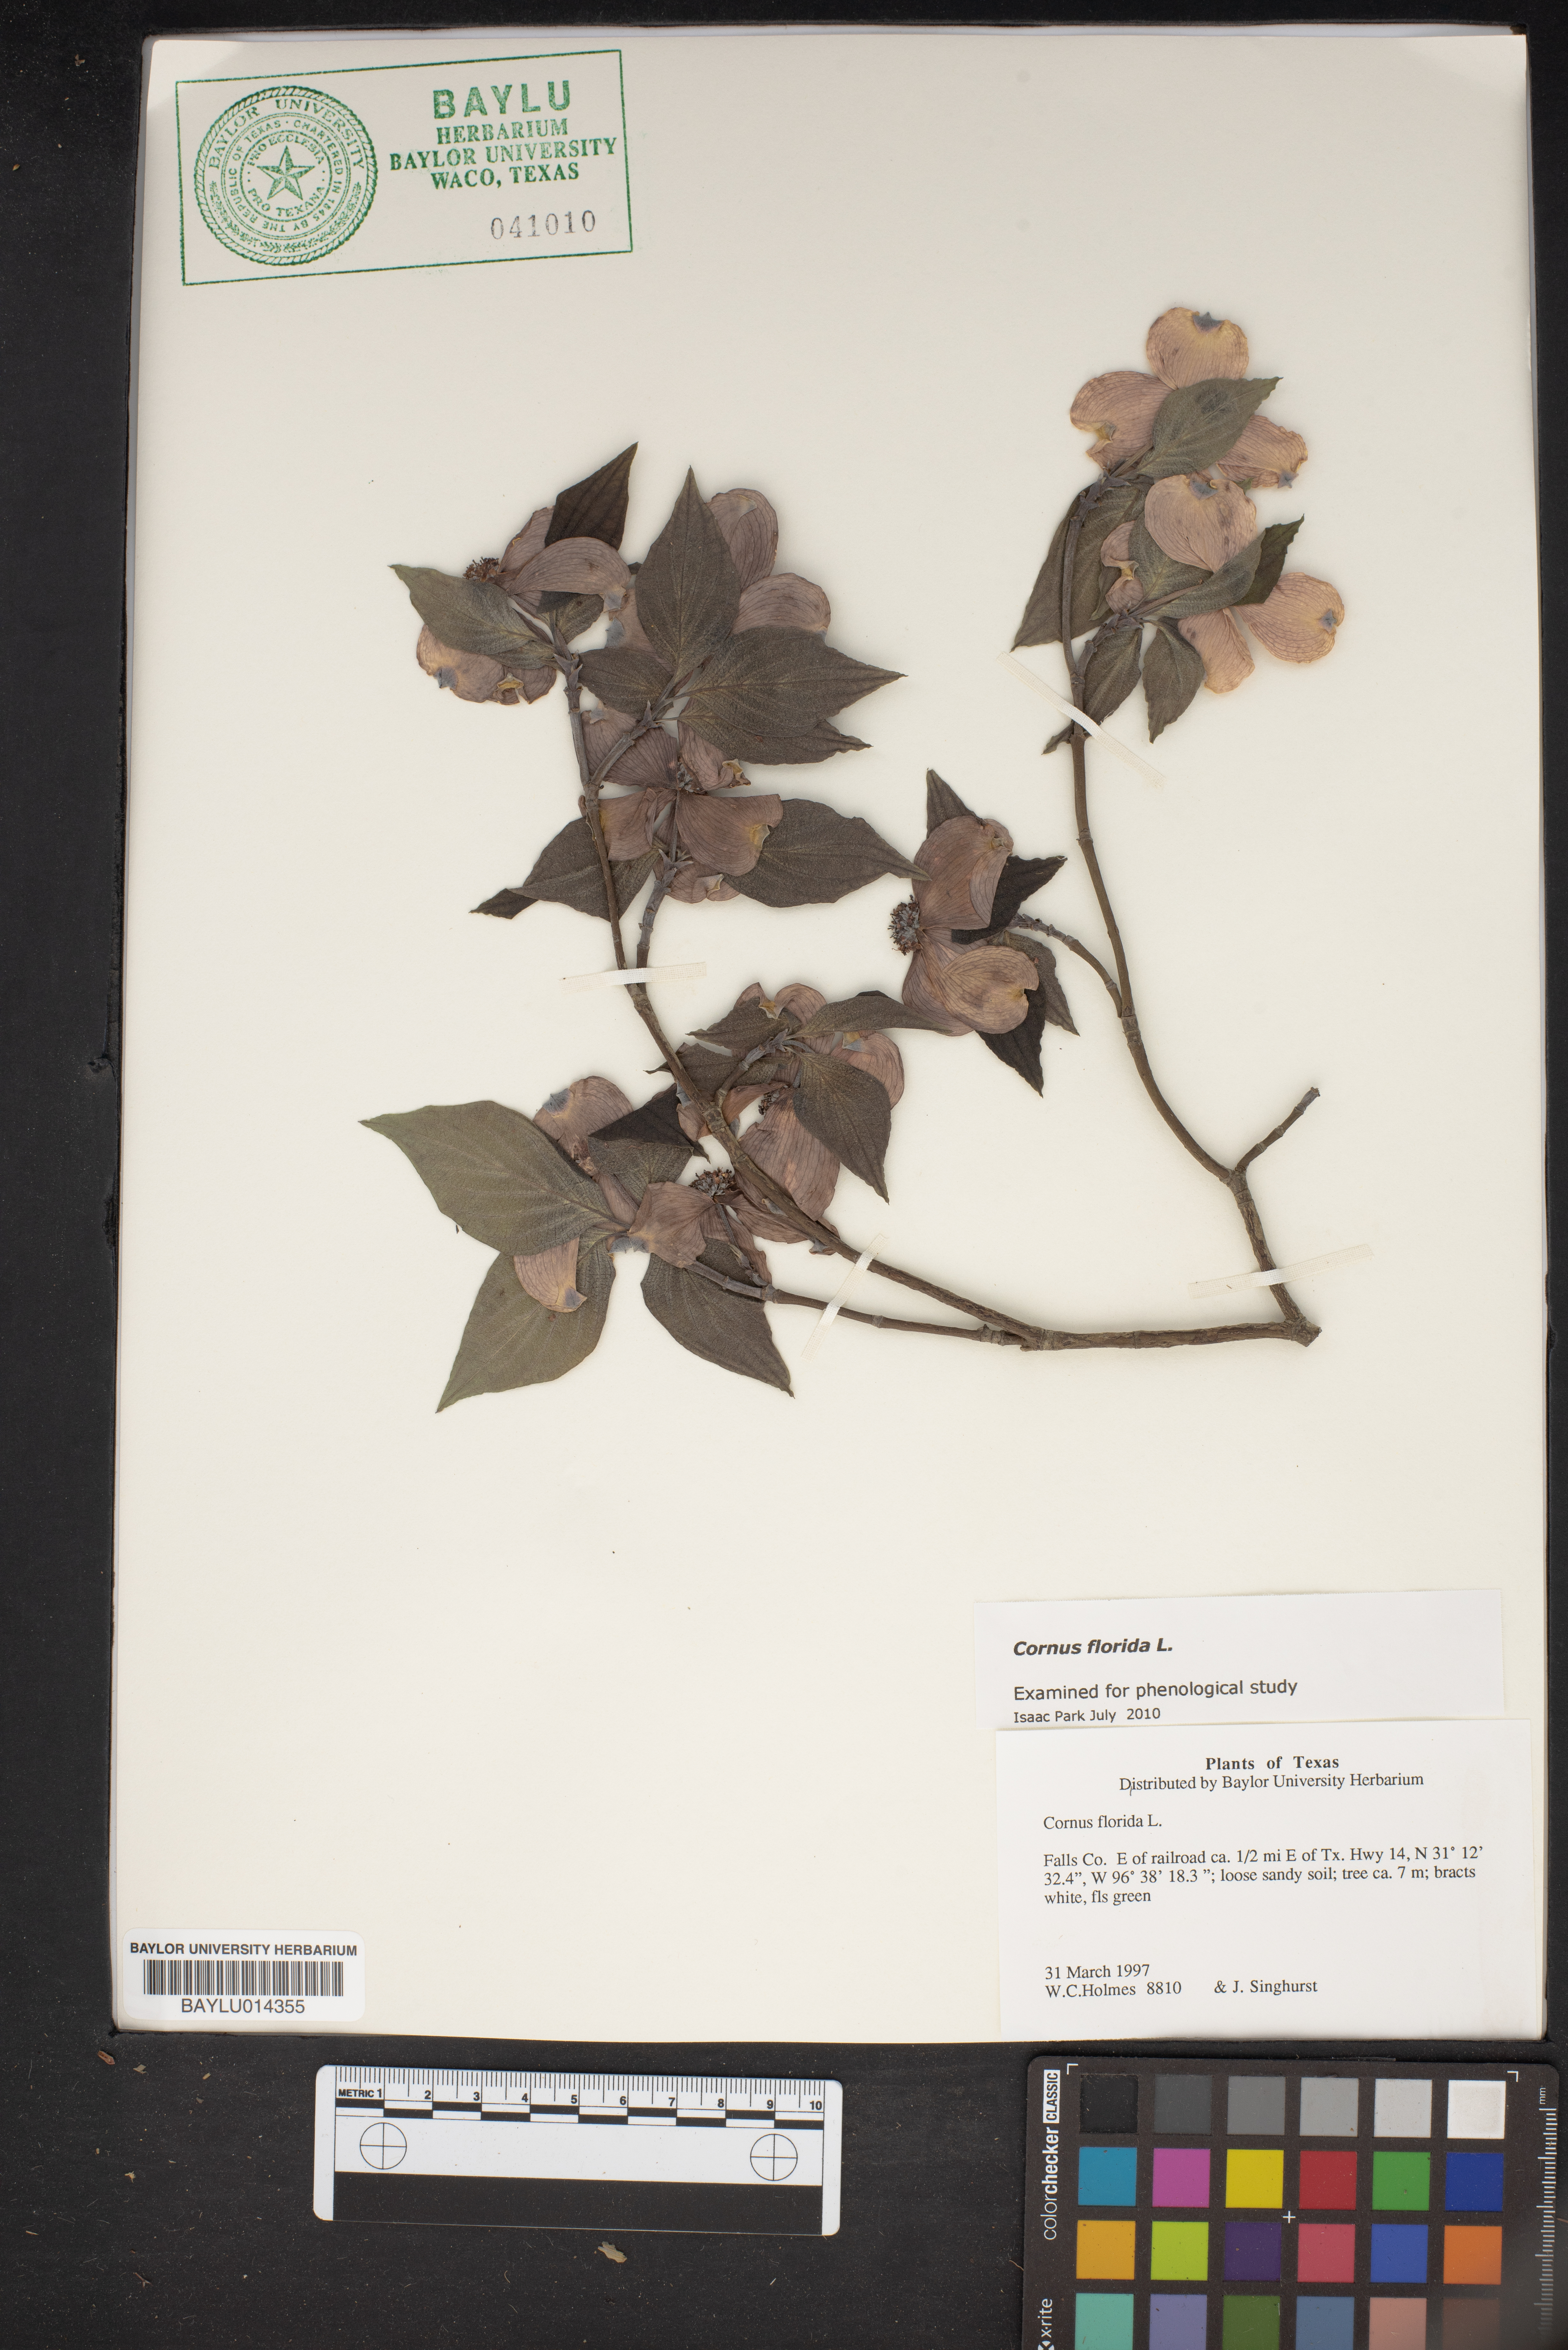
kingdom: Plantae
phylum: Tracheophyta
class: Magnoliopsida
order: Cornales
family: Cornaceae
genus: Cornus
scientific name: Cornus florida
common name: Flowering dogwood
